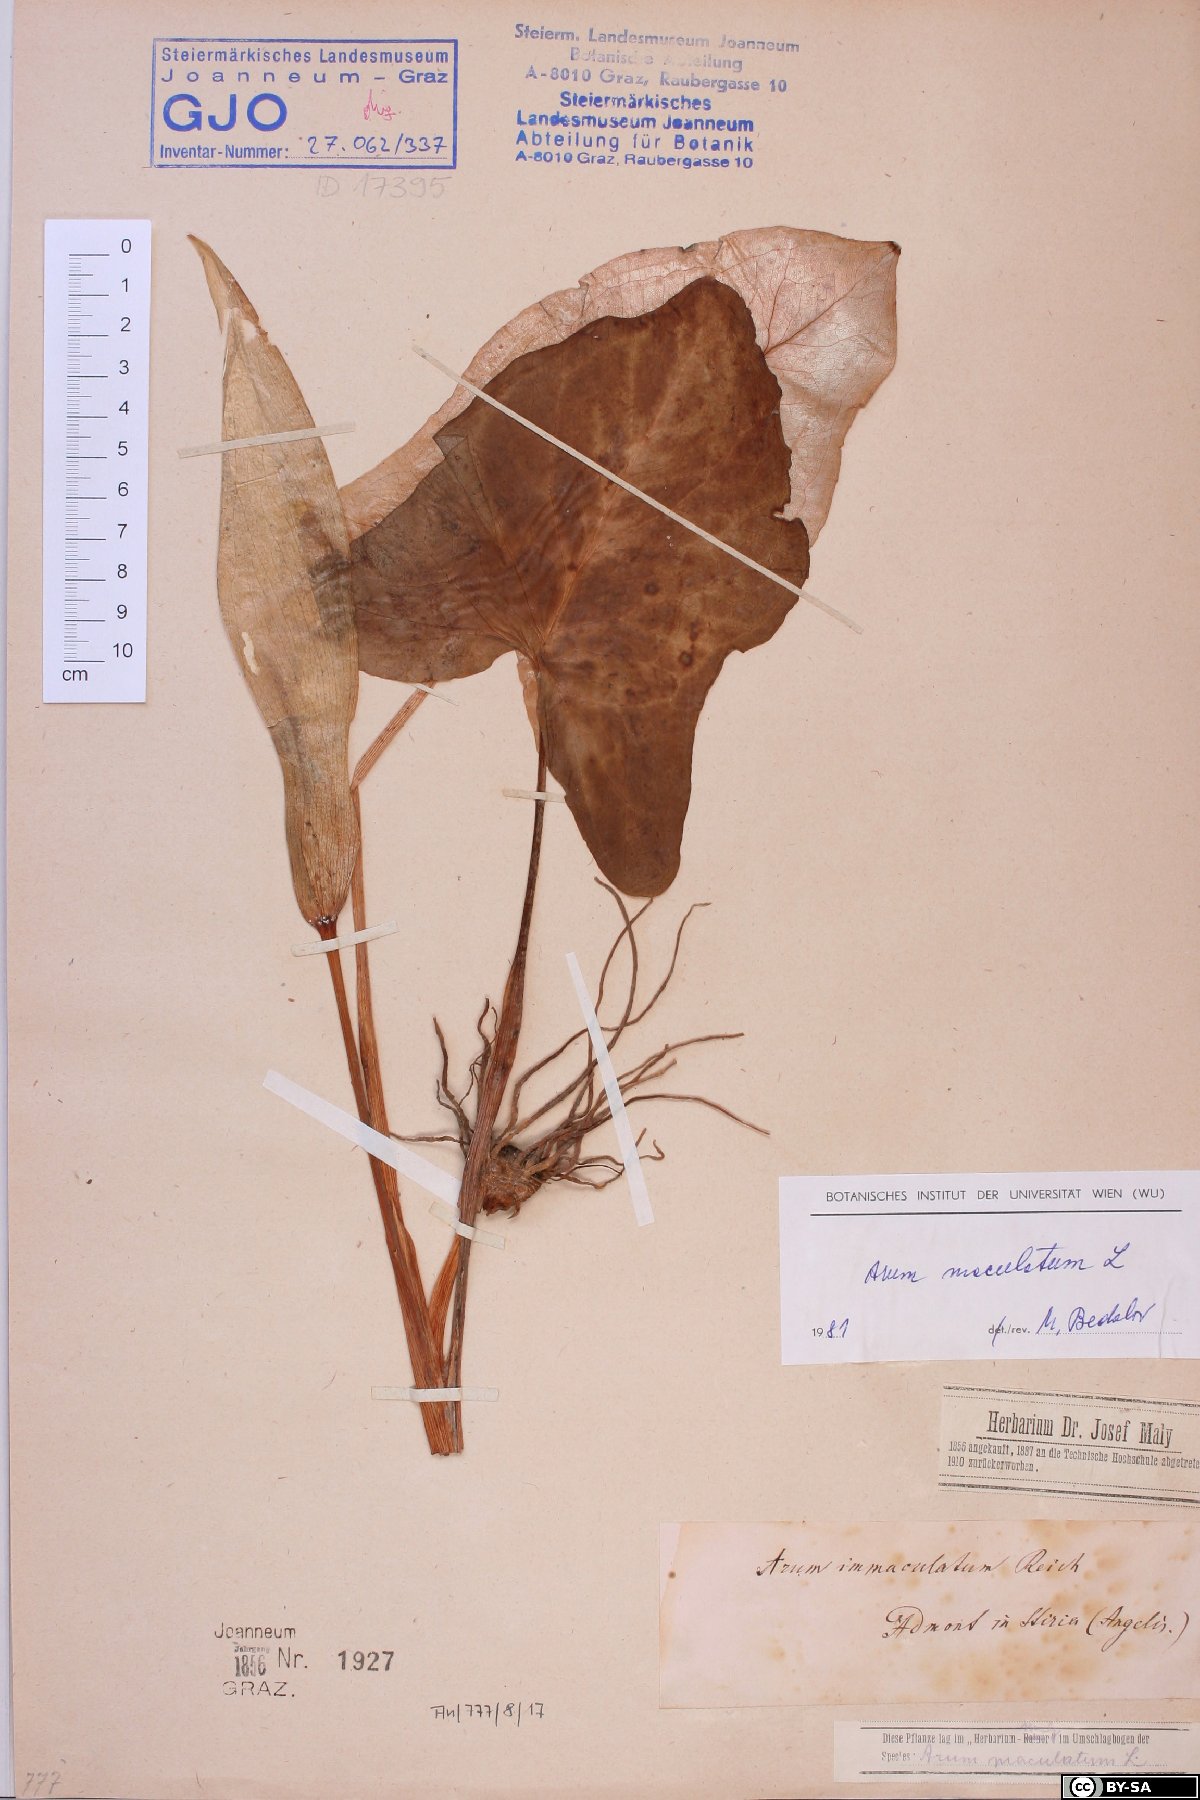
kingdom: Plantae
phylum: Tracheophyta
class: Liliopsida
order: Alismatales
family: Araceae
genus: Arum
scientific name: Arum maculatum
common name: Lords-and-ladies
